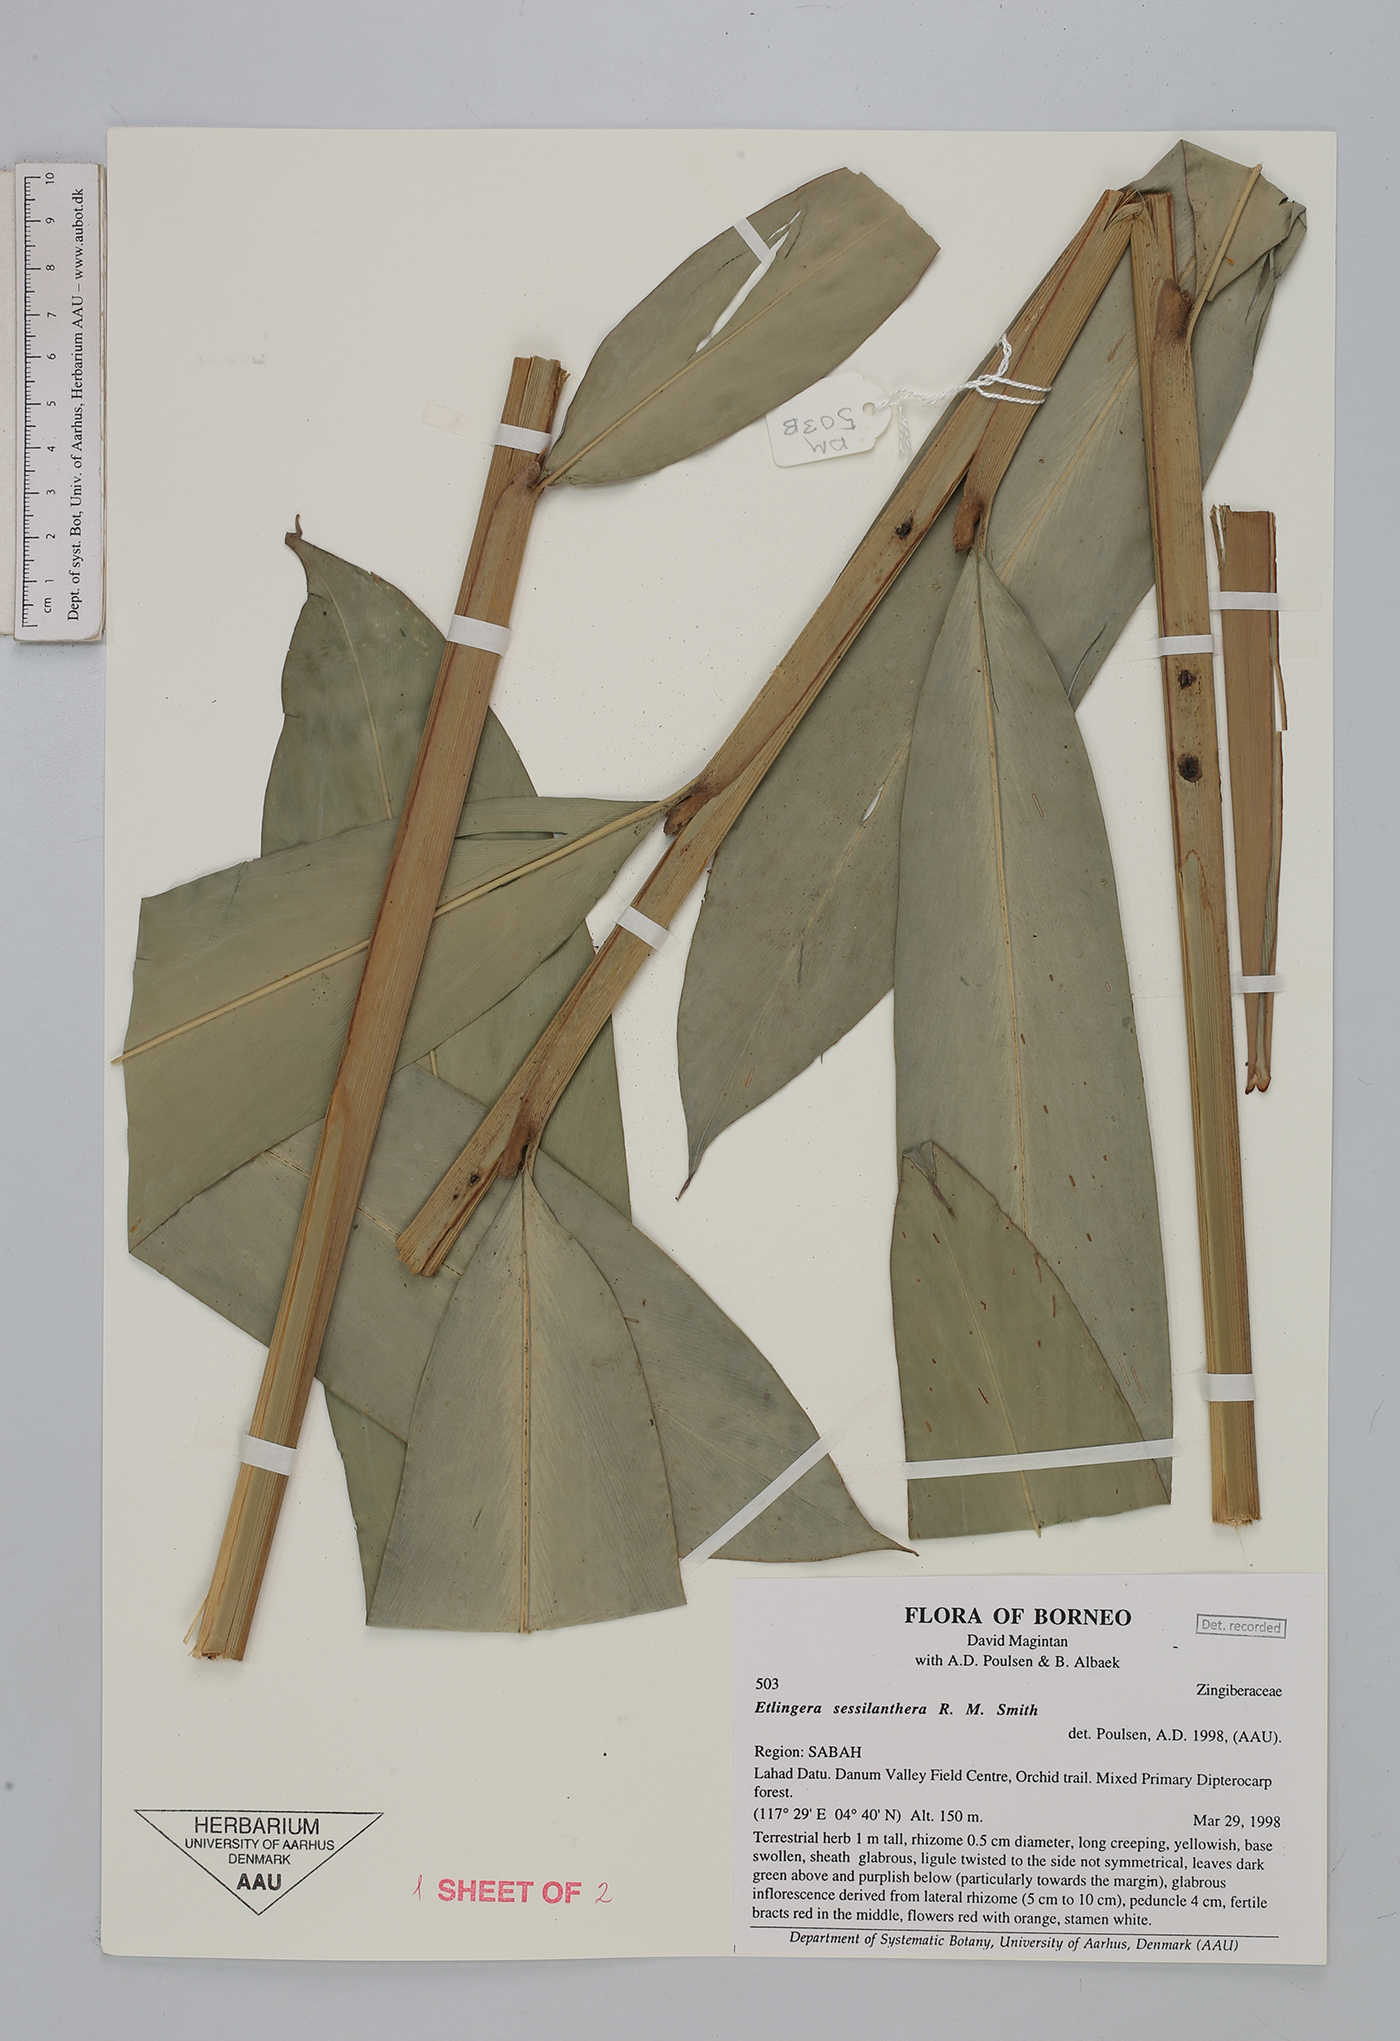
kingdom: Plantae
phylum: Tracheophyta
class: Liliopsida
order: Zingiberales
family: Zingiberaceae
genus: Etlingera
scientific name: Etlingera sessilanthera
